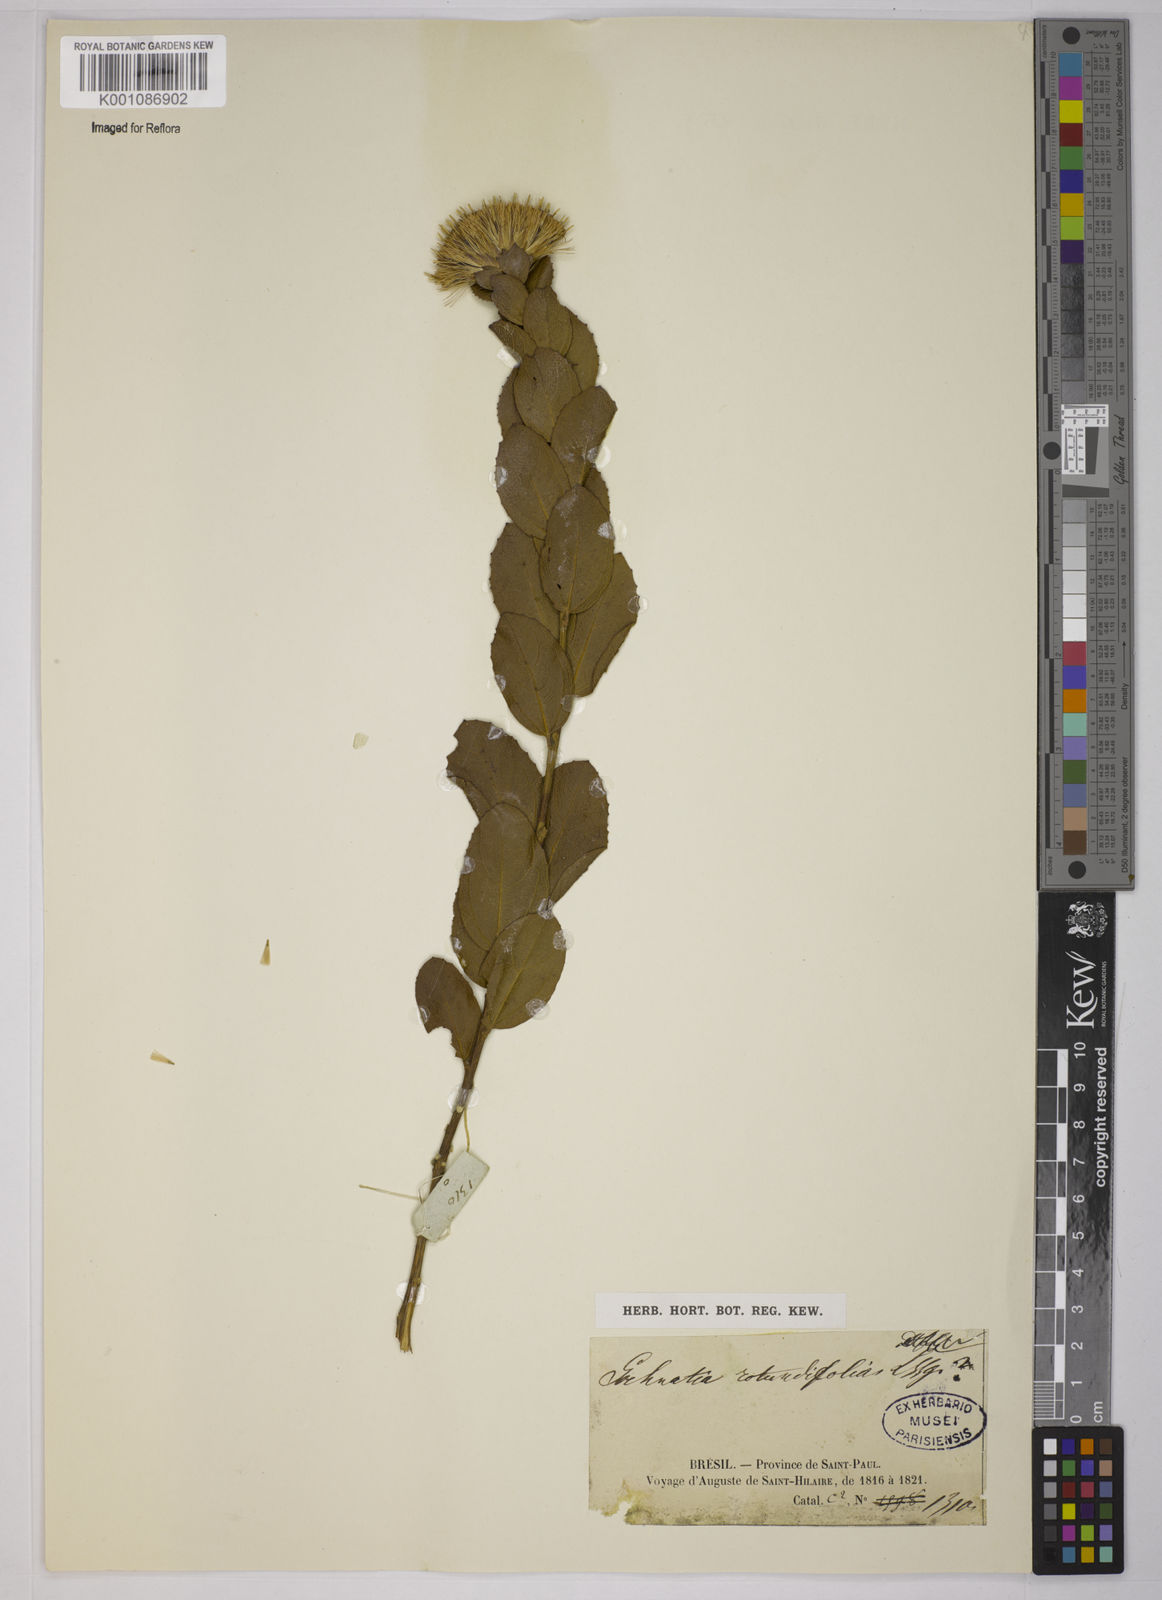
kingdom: Plantae
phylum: Tracheophyta
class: Magnoliopsida
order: Asterales
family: Asteraceae
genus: Vickia
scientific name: Vickia rotundifolia
